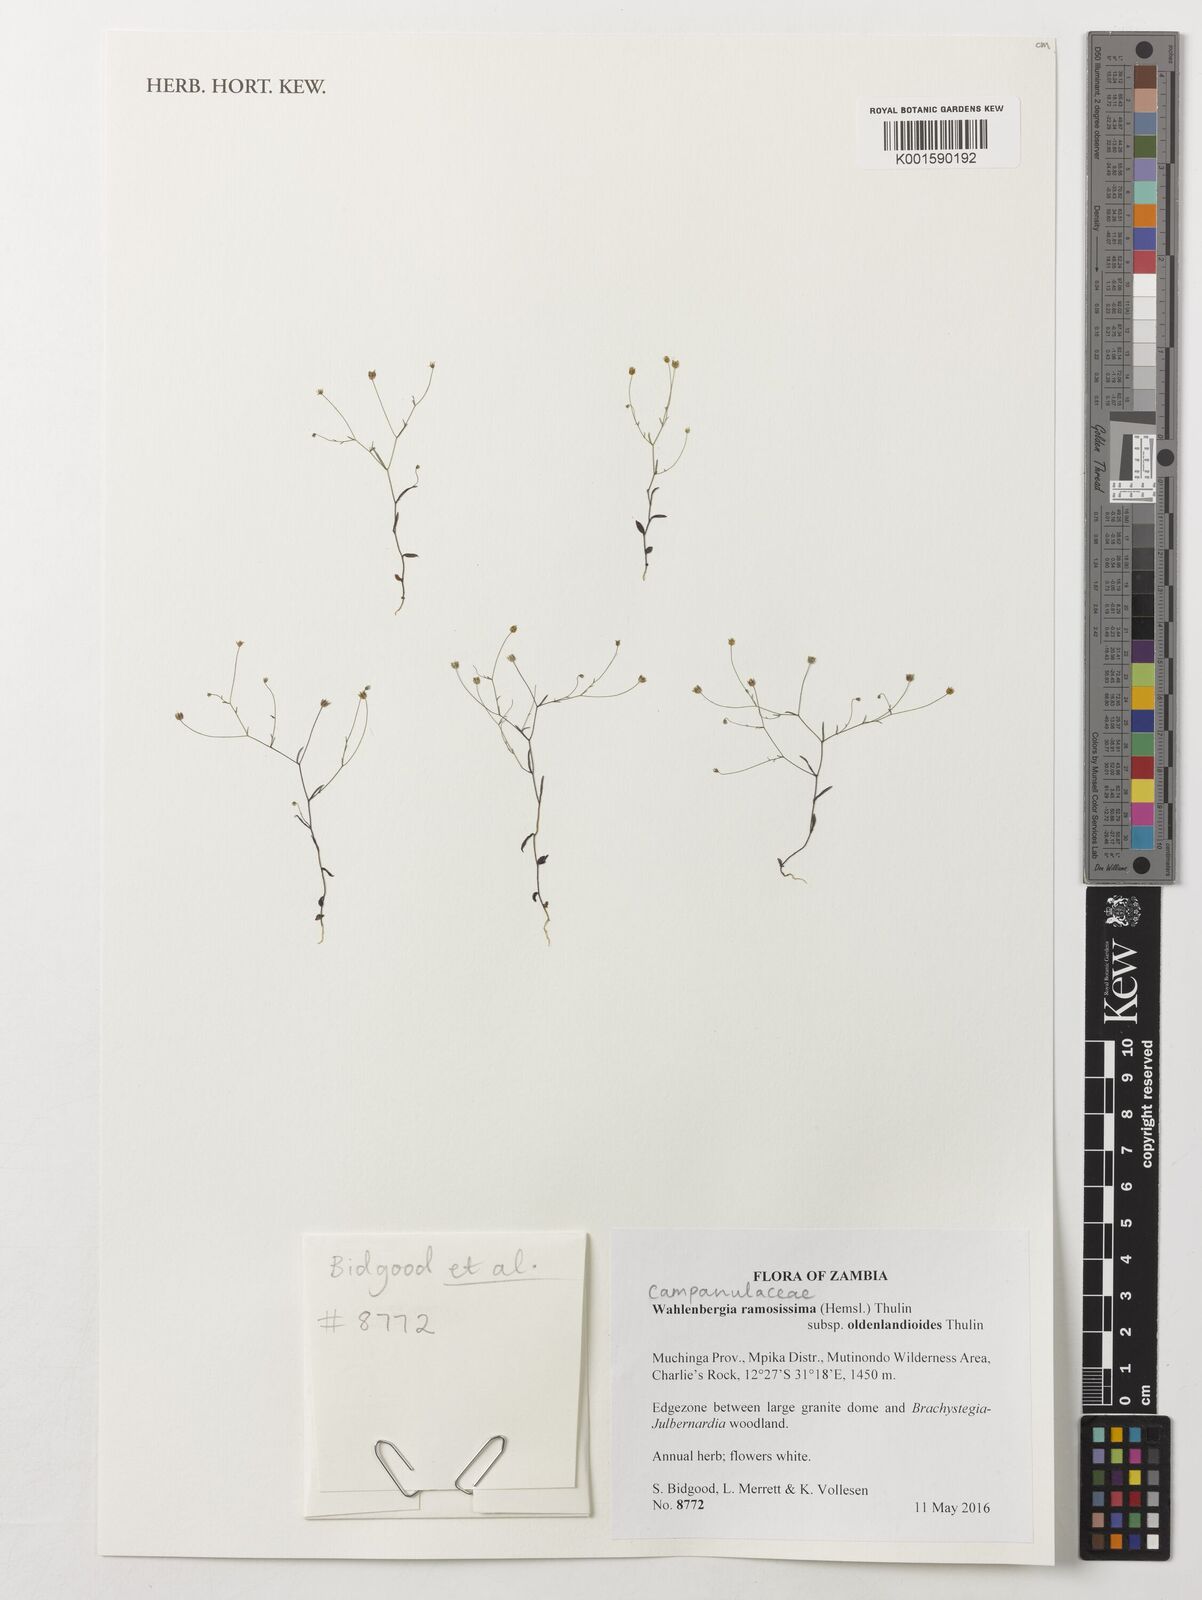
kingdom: Plantae
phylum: Tracheophyta
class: Magnoliopsida
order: Asterales
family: Campanulaceae
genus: Wahlenbergia
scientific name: Wahlenbergia ramosissima
